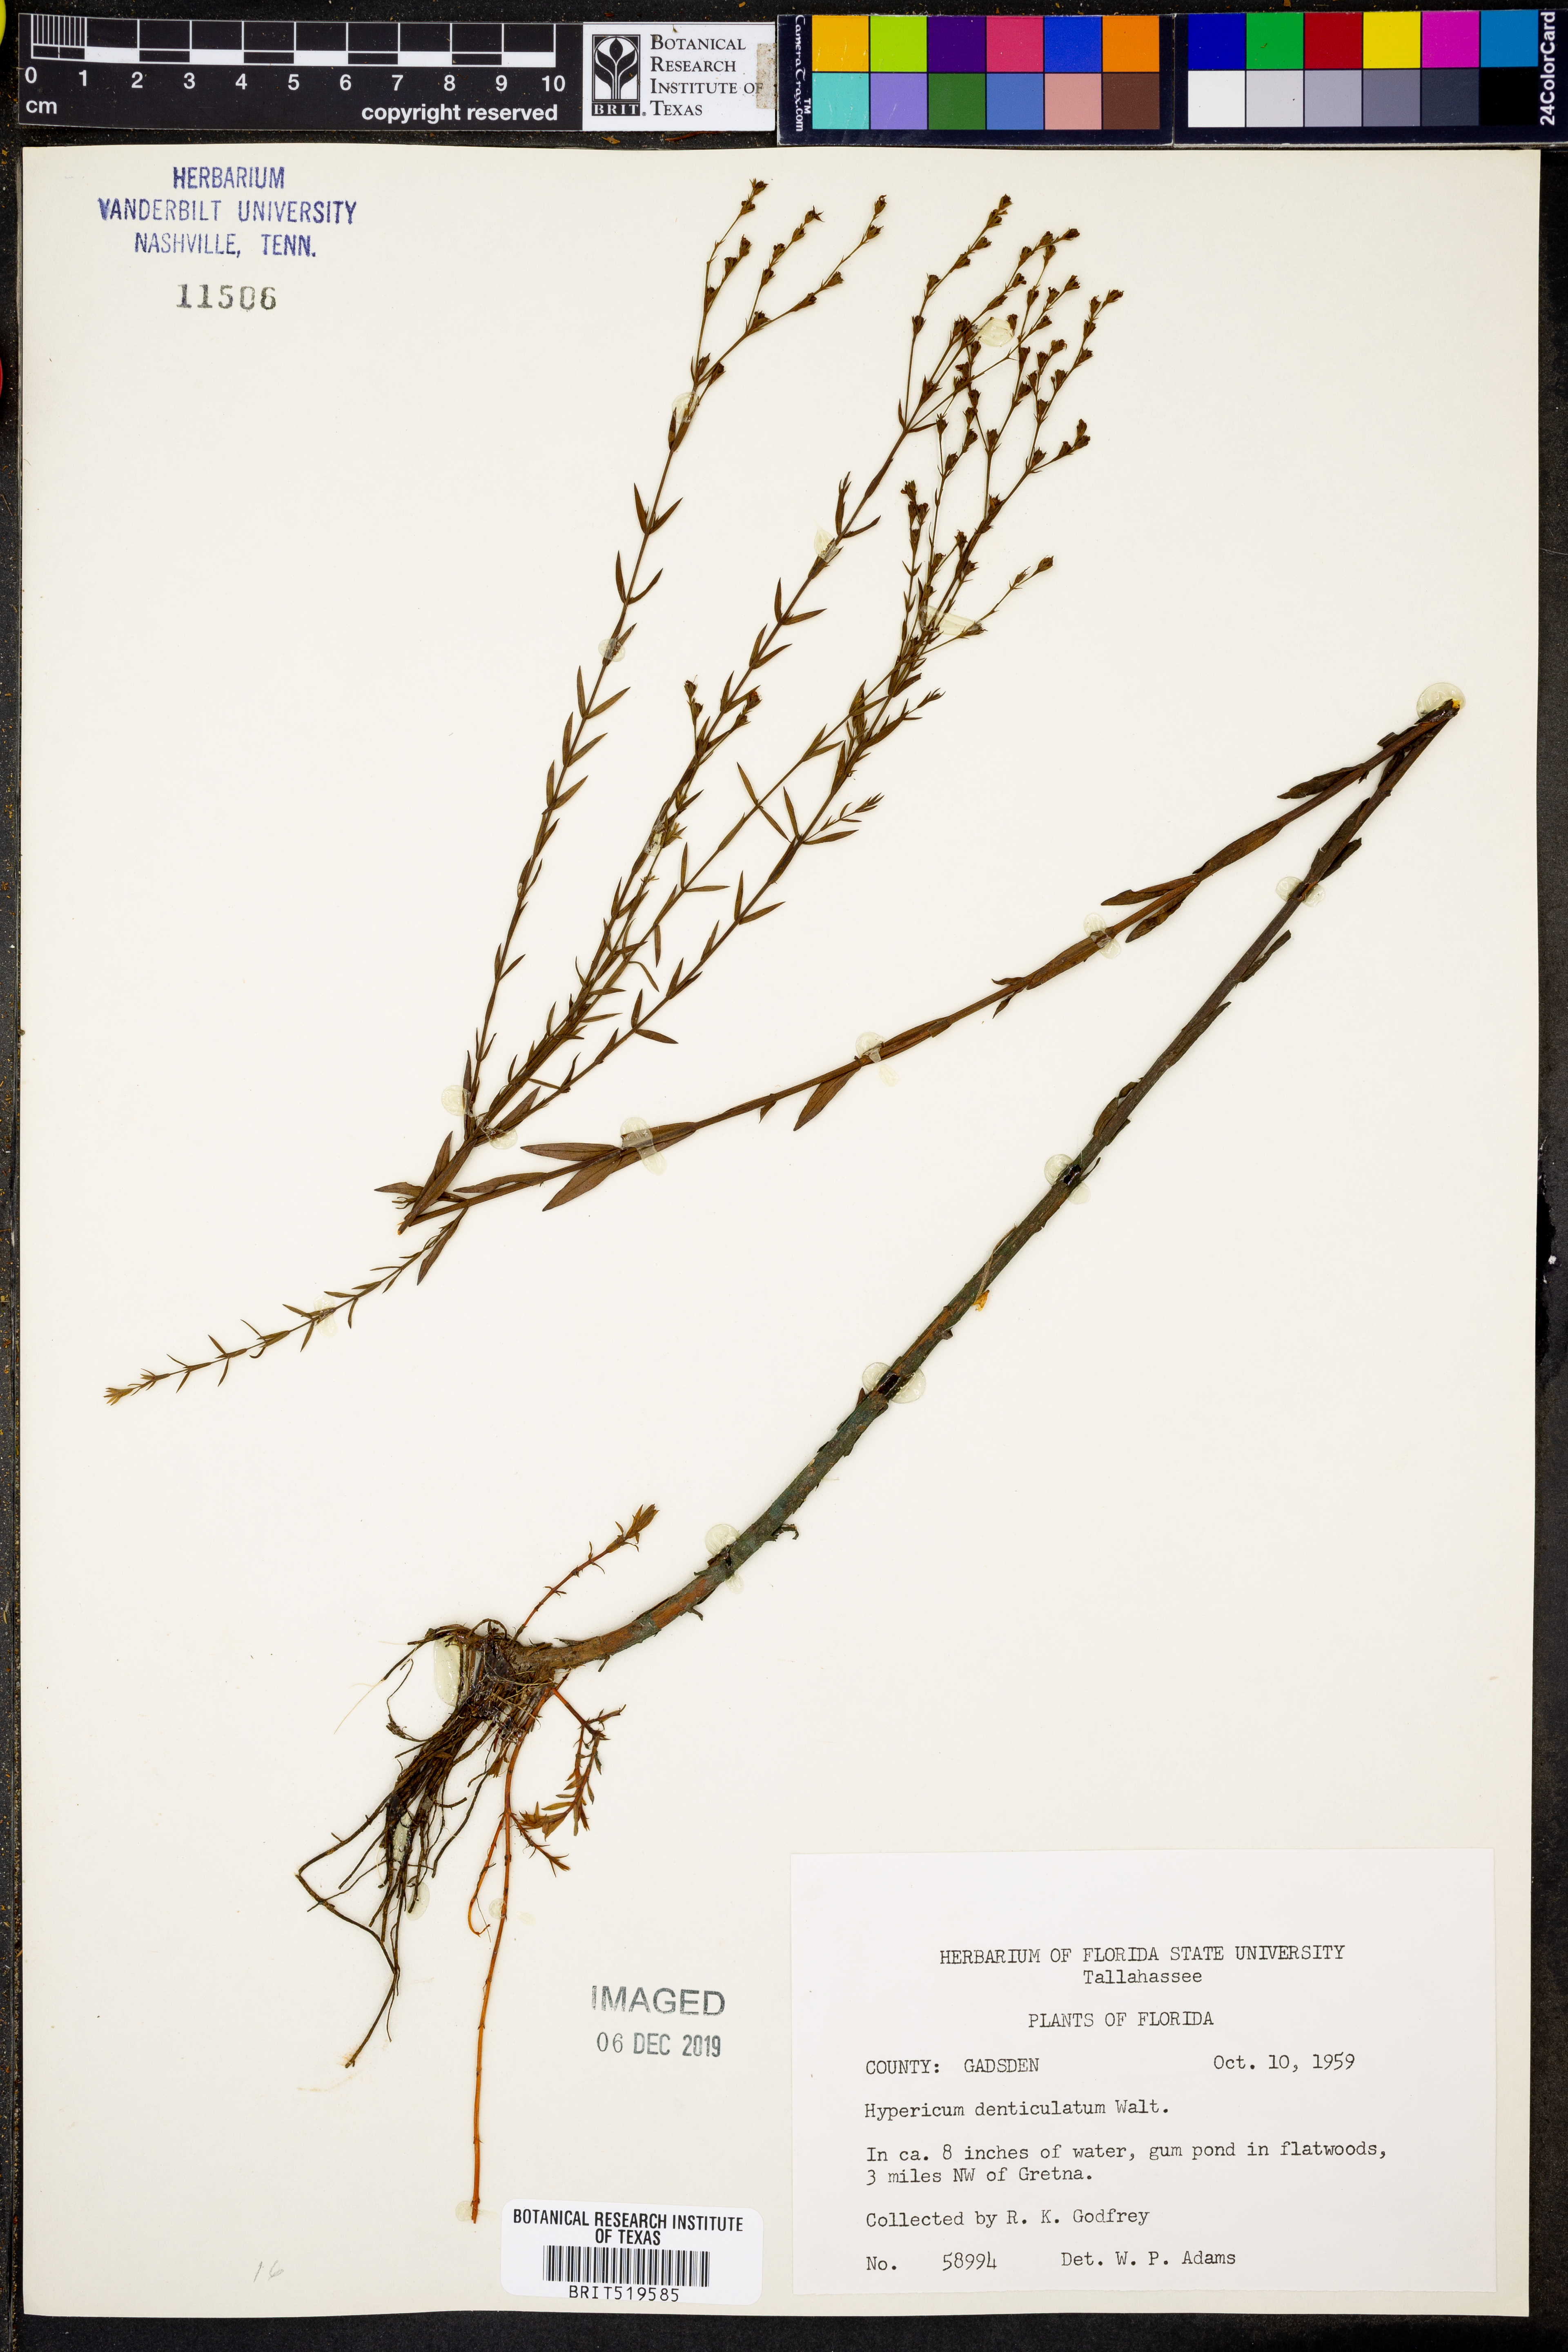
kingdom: Plantae
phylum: Tracheophyta
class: Magnoliopsida
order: Malpighiales
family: Hypericaceae
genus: Hypericum
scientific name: Hypericum denticulatum
